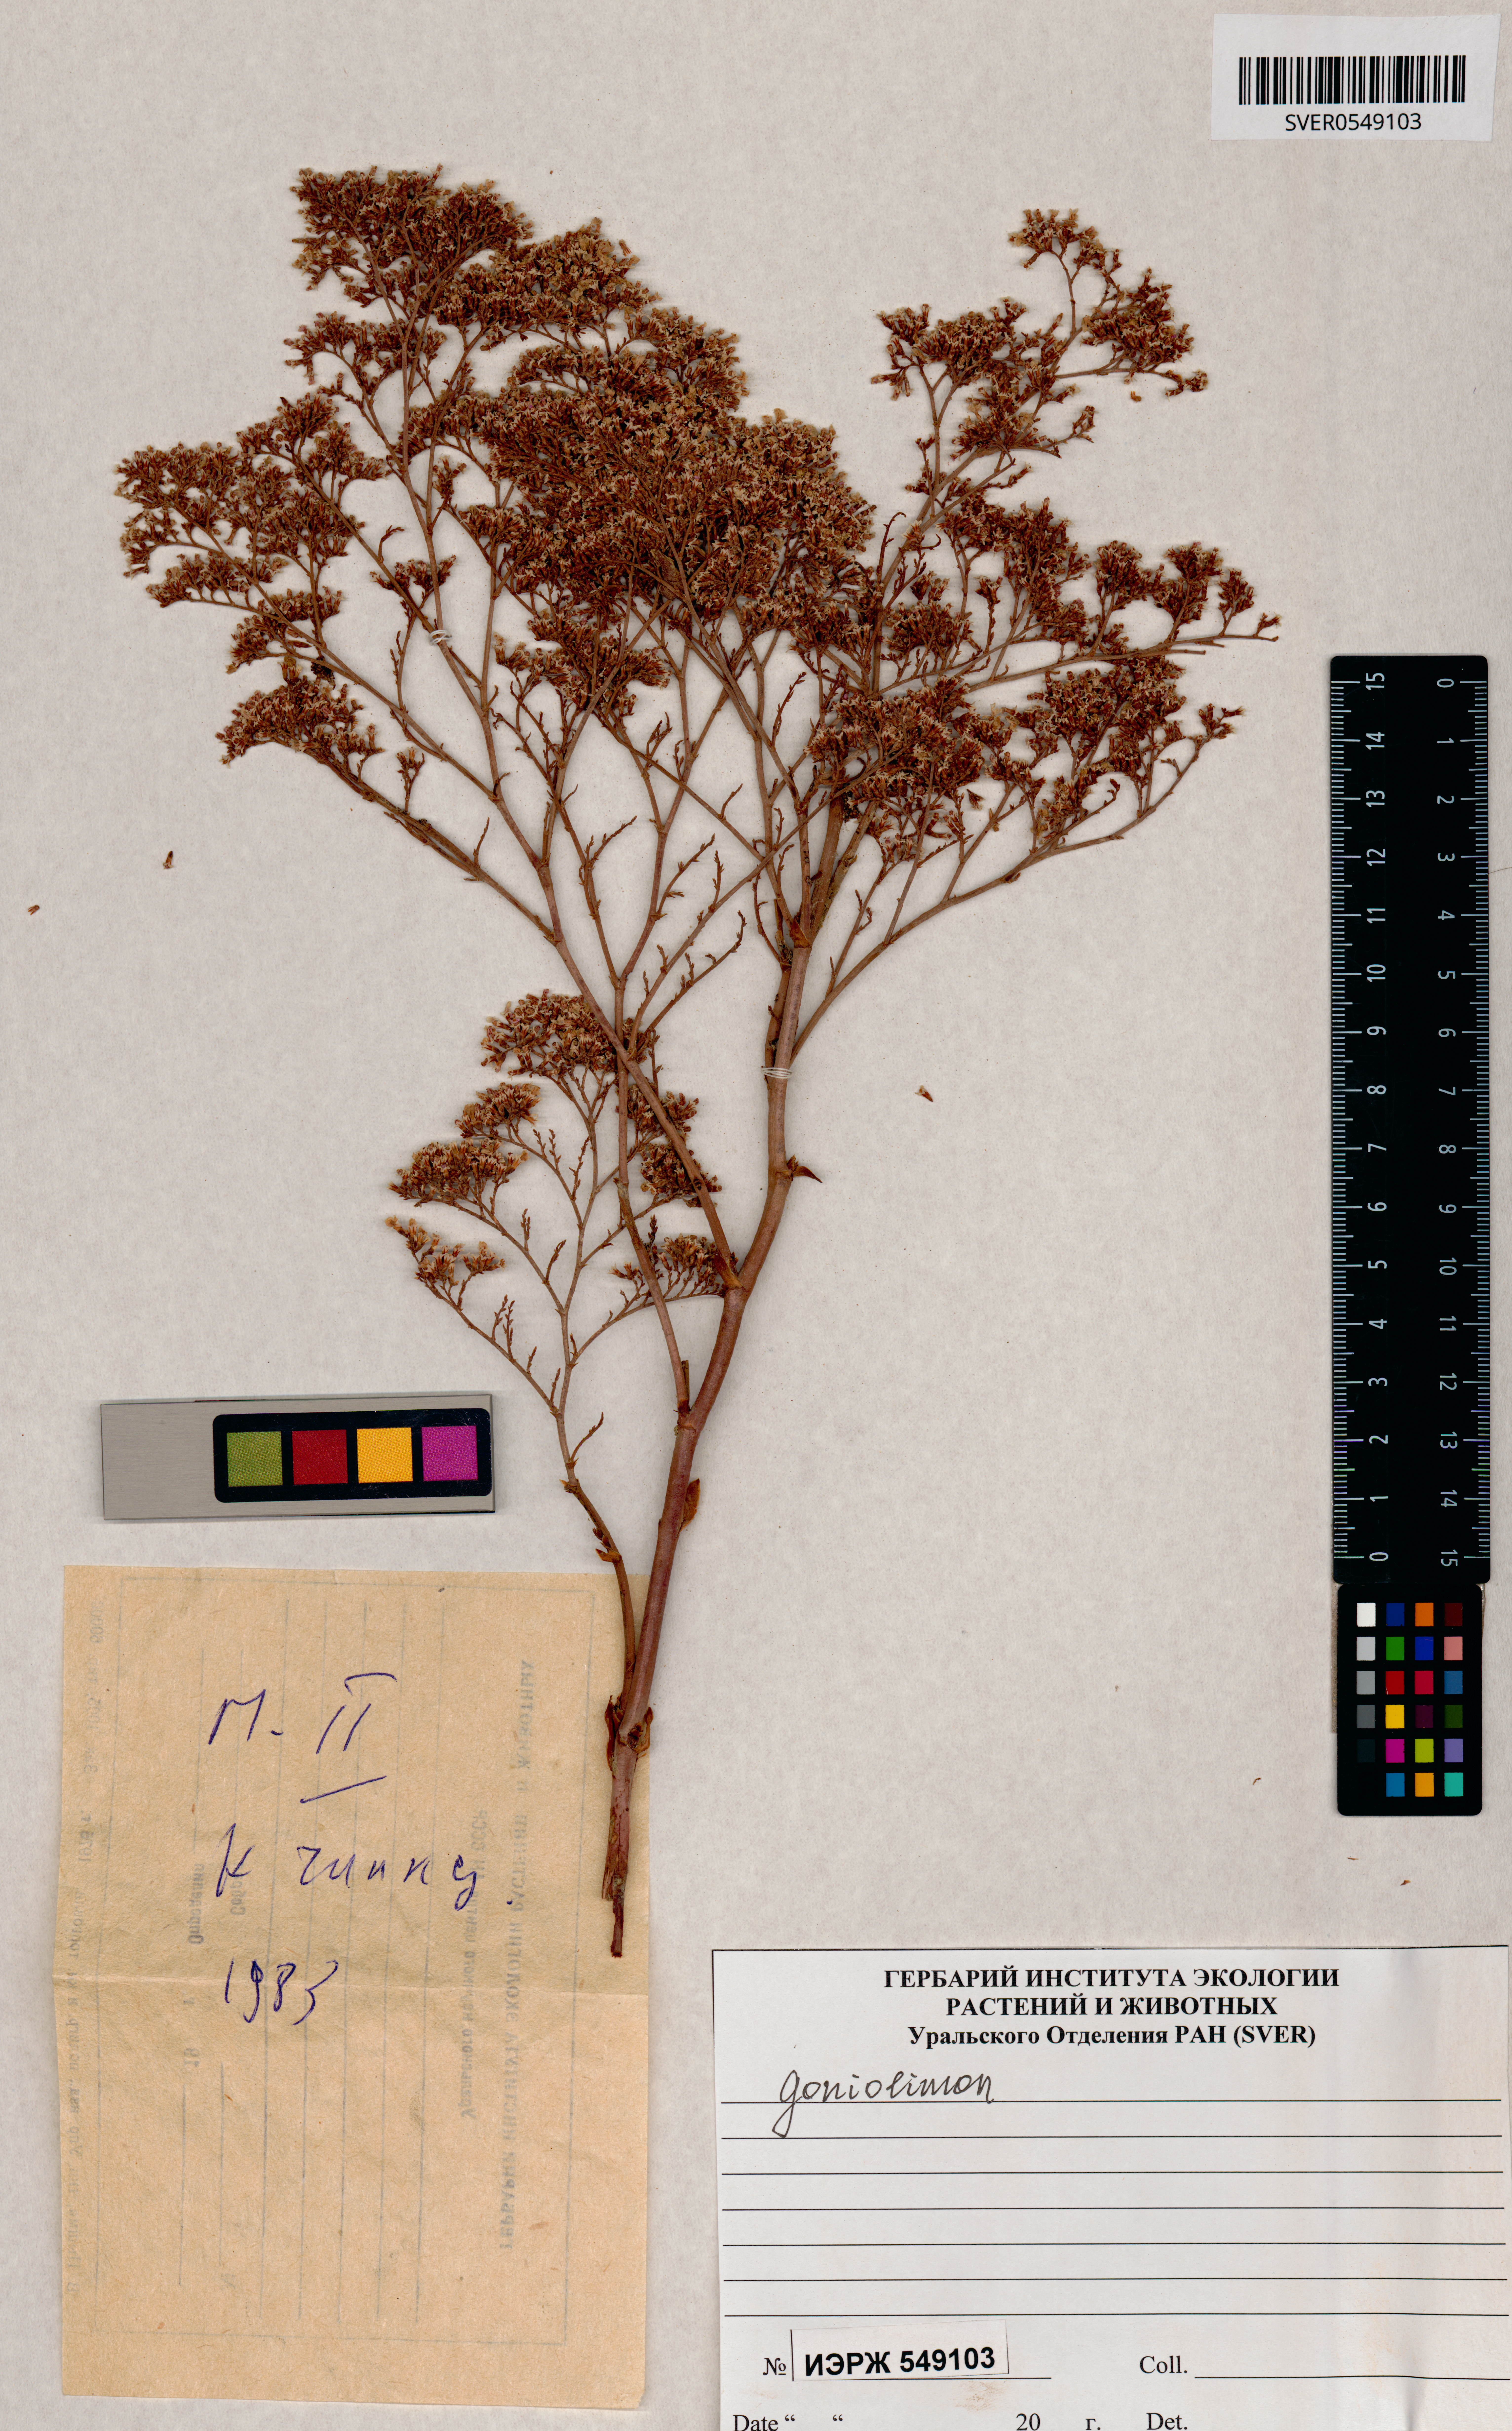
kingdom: Plantae
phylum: Tracheophyta
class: Magnoliopsida
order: Caryophyllales
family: Plumbaginaceae
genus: Goniolimon
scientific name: Goniolimon
